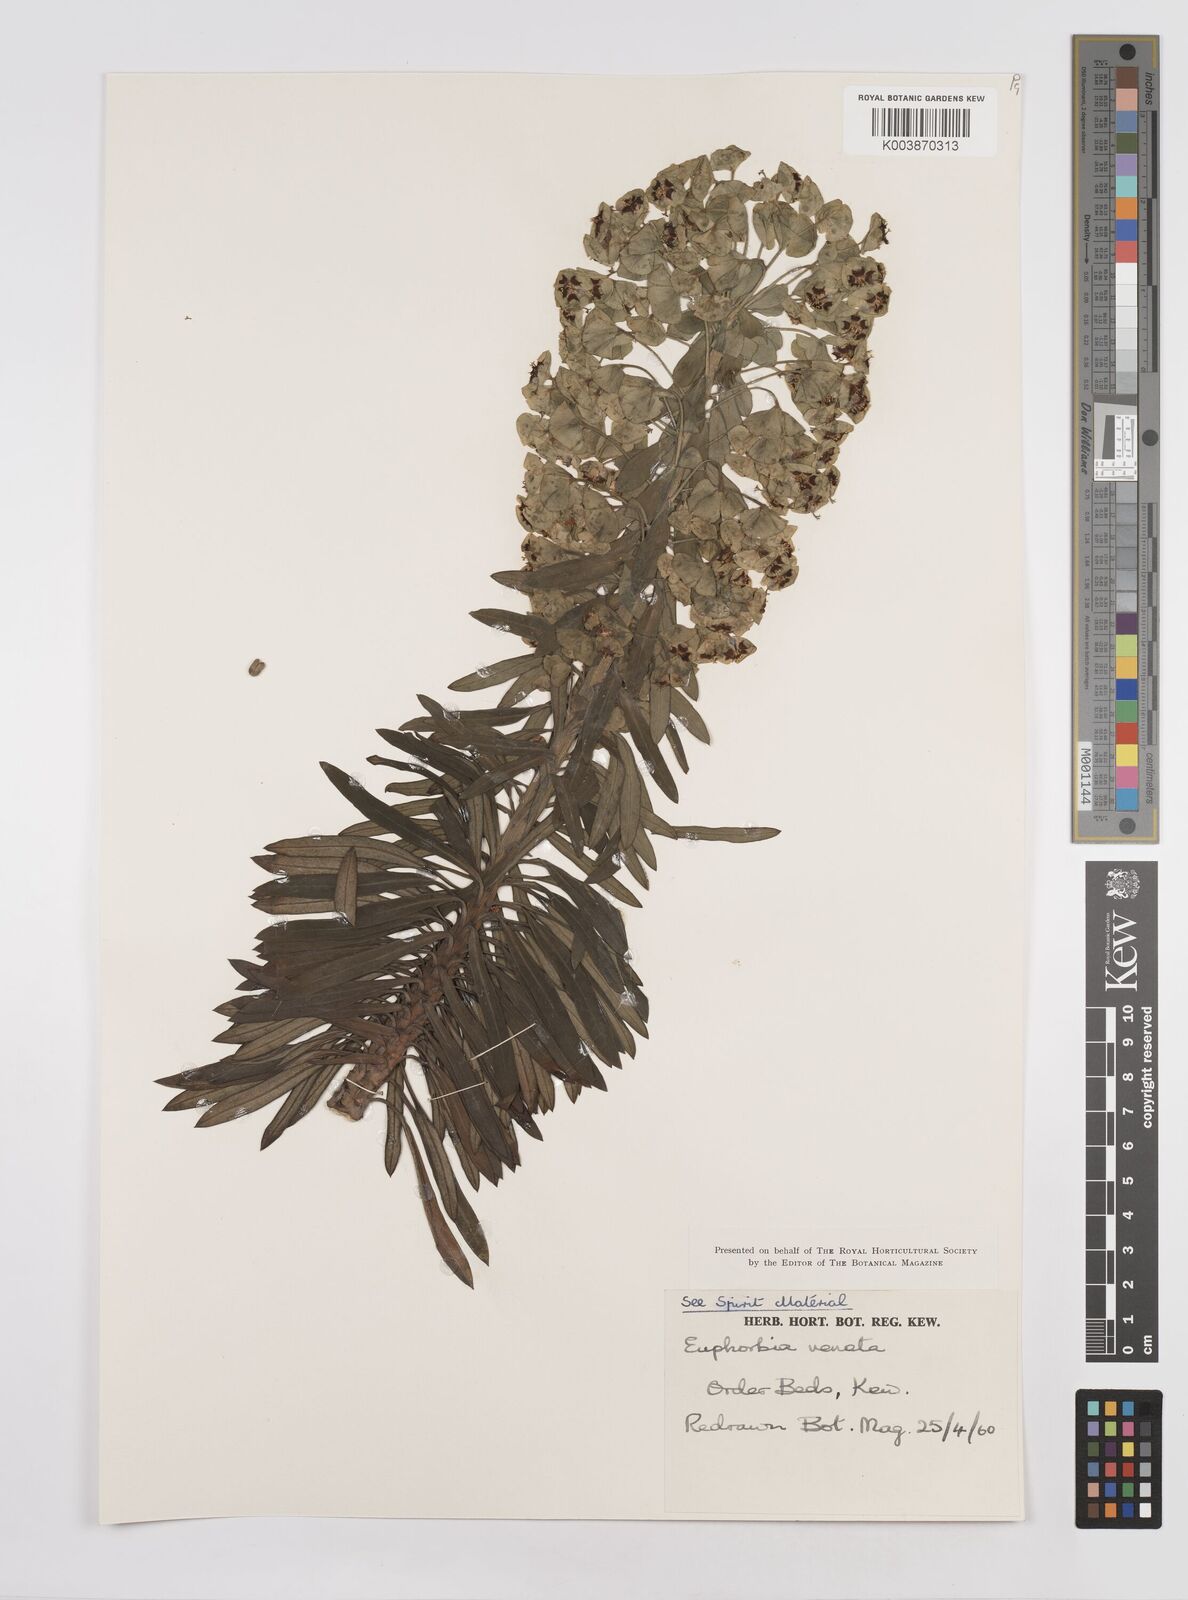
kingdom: Plantae
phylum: Tracheophyta
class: Magnoliopsida
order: Malpighiales
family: Euphorbiaceae
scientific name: Euphorbiaceae
